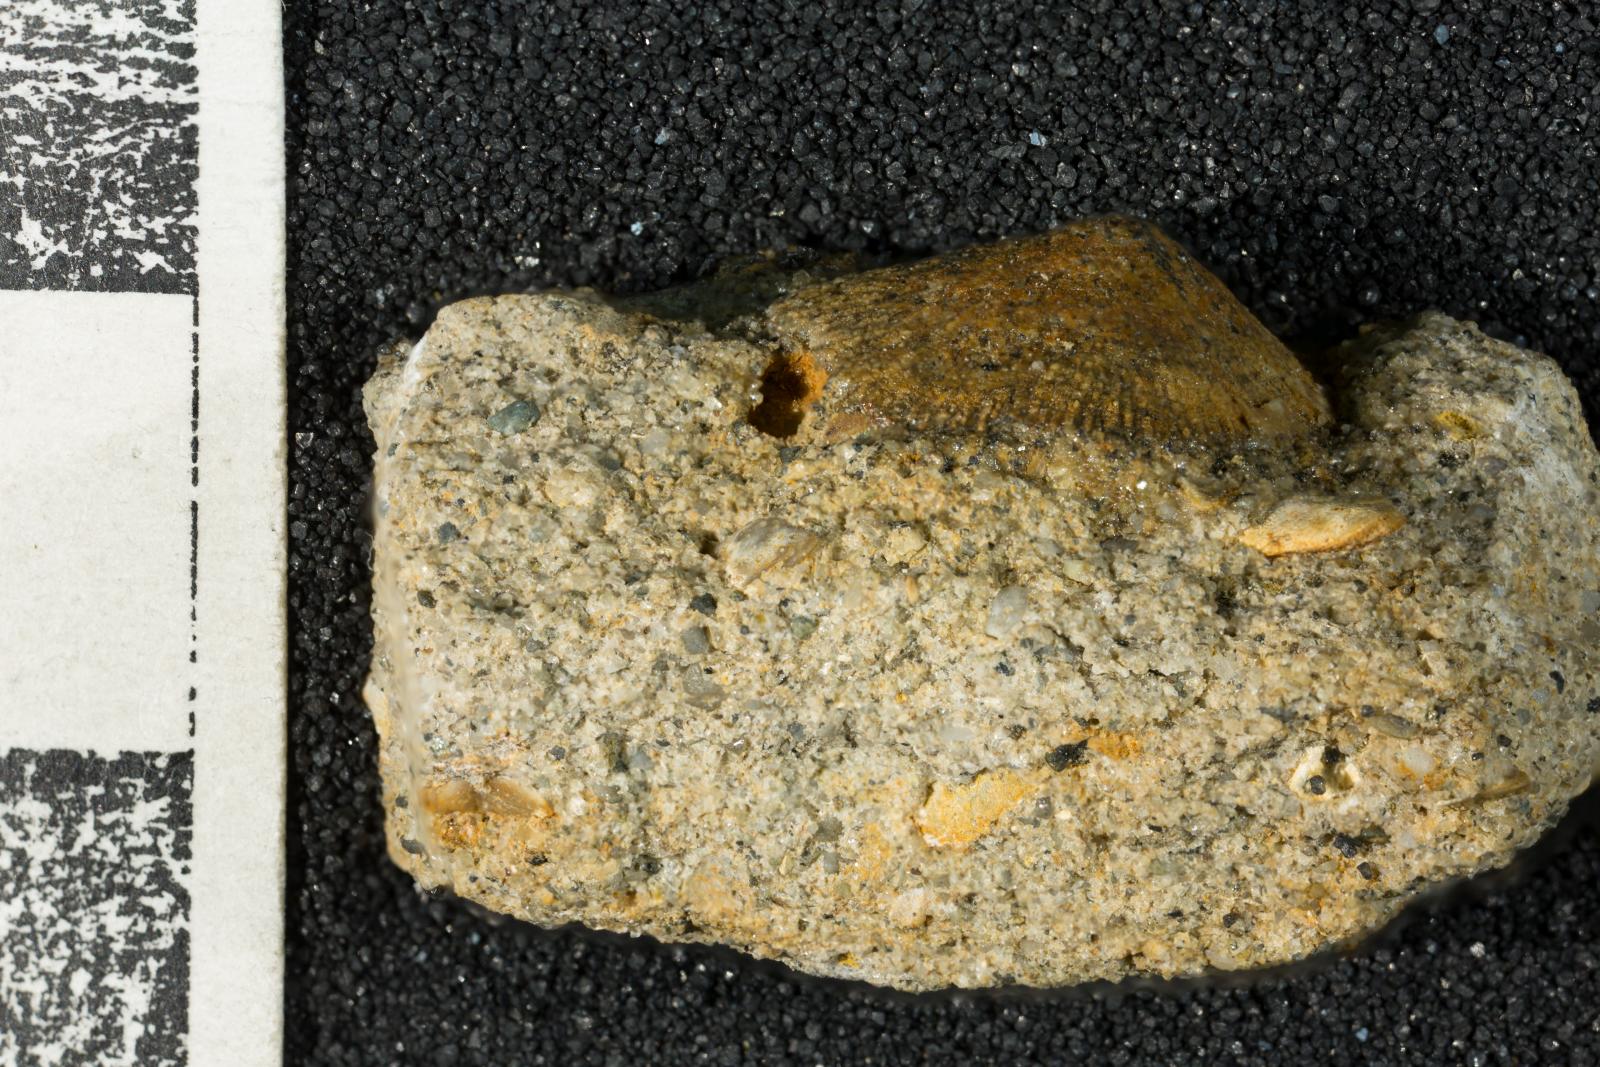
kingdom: Animalia
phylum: Mollusca
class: Gastropoda
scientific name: Gastropoda
